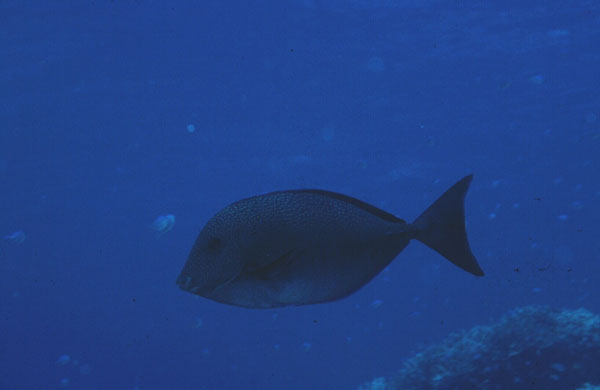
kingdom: Animalia
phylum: Chordata
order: Perciformes
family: Acanthuridae
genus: Prionurus
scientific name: Prionurus maculatus
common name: Yellowspotted sawtail
